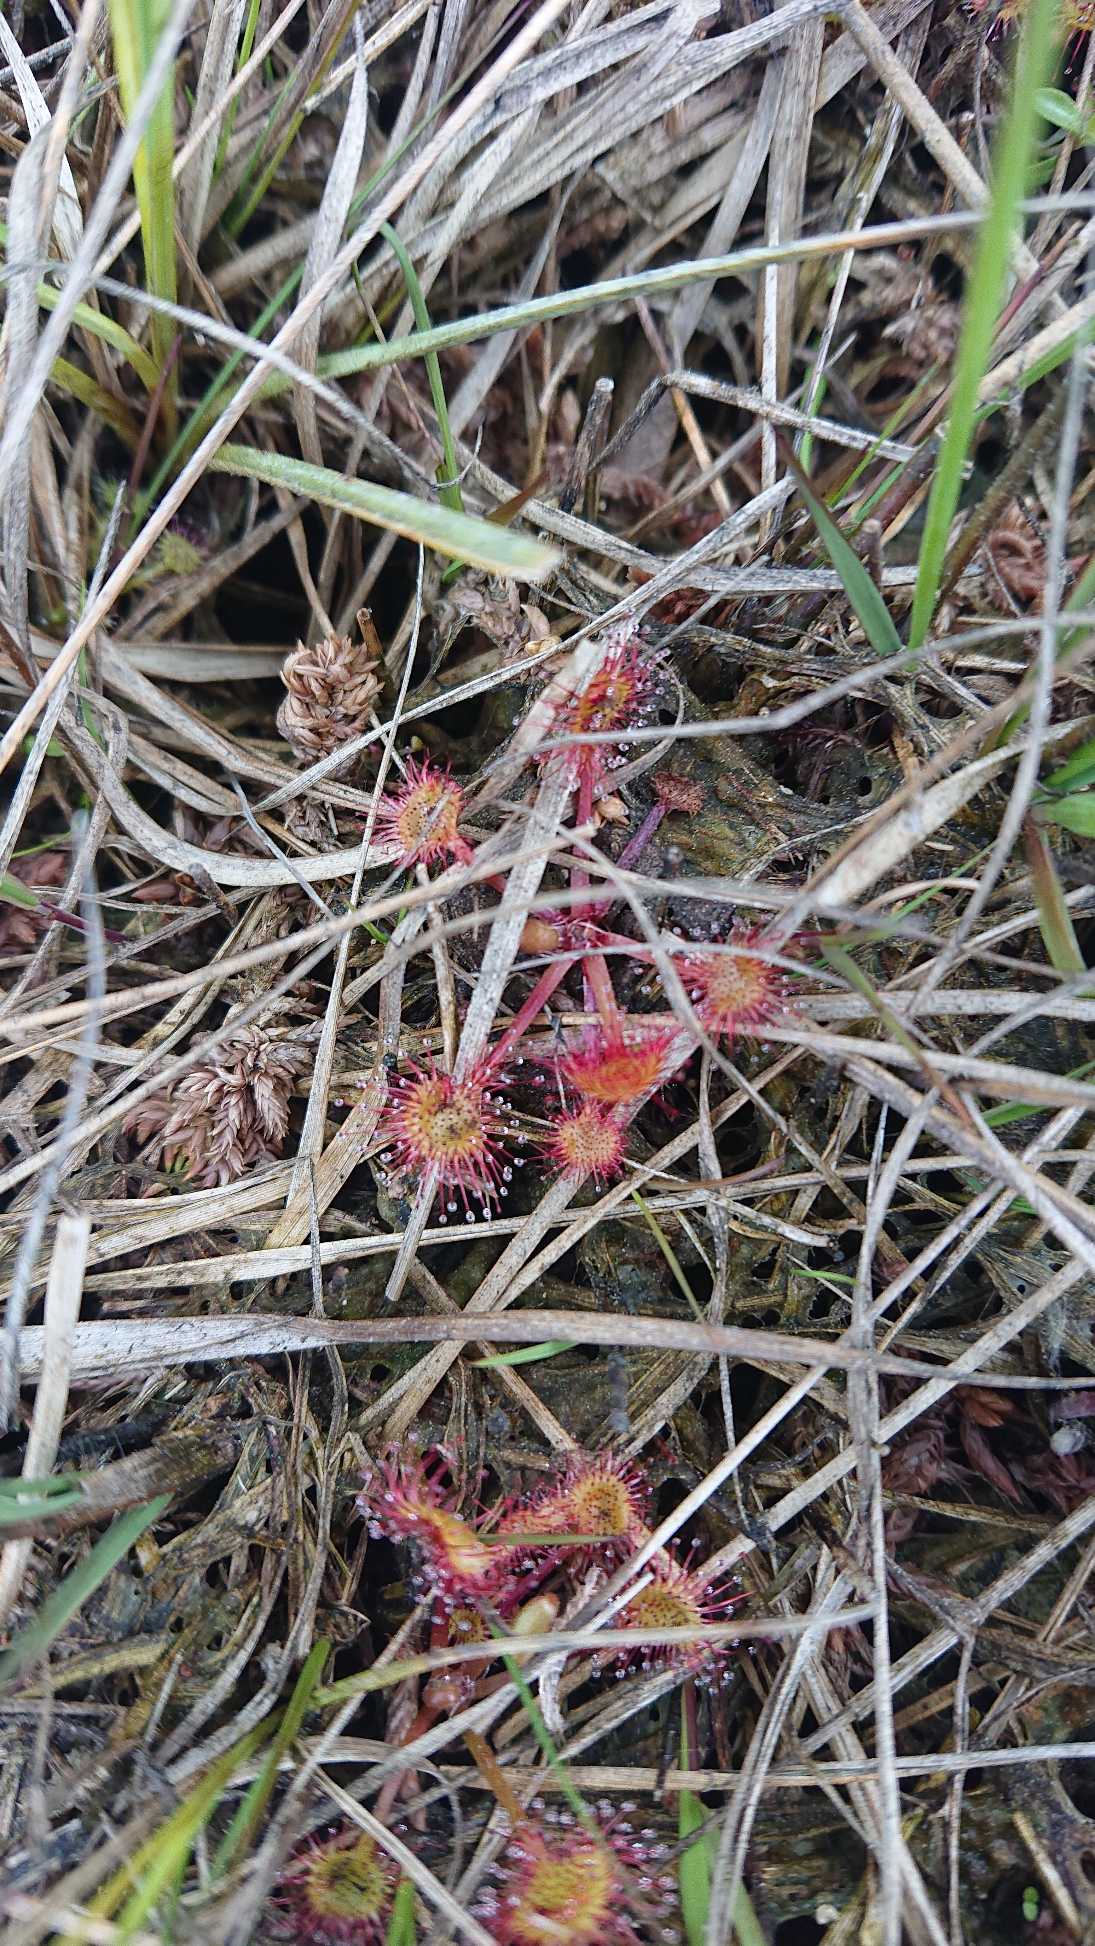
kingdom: Plantae
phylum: Tracheophyta
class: Magnoliopsida
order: Caryophyllales
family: Droseraceae
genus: Drosera
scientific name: Drosera rotundifolia
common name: Rundbladet soldug
